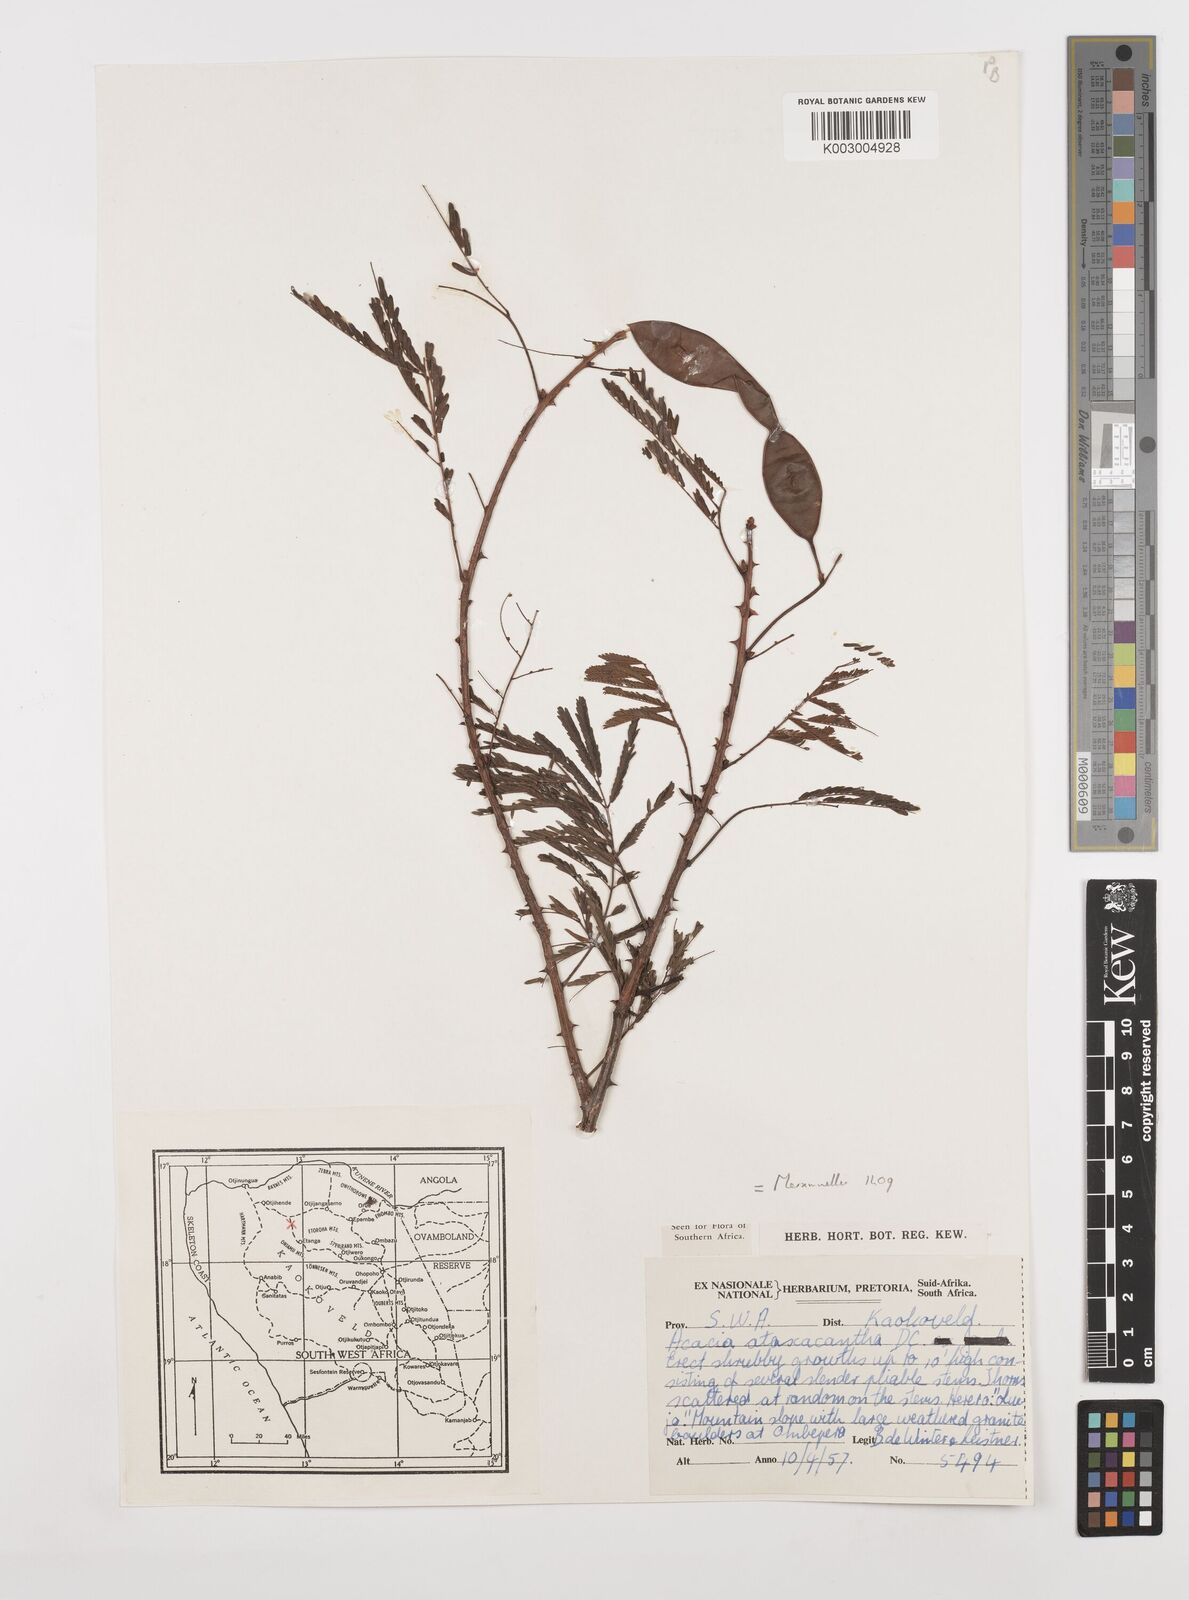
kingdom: Plantae
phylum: Tracheophyta
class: Magnoliopsida
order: Fabales
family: Fabaceae
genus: Senegalia
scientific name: Senegalia ataxacantha
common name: Flame acacia
